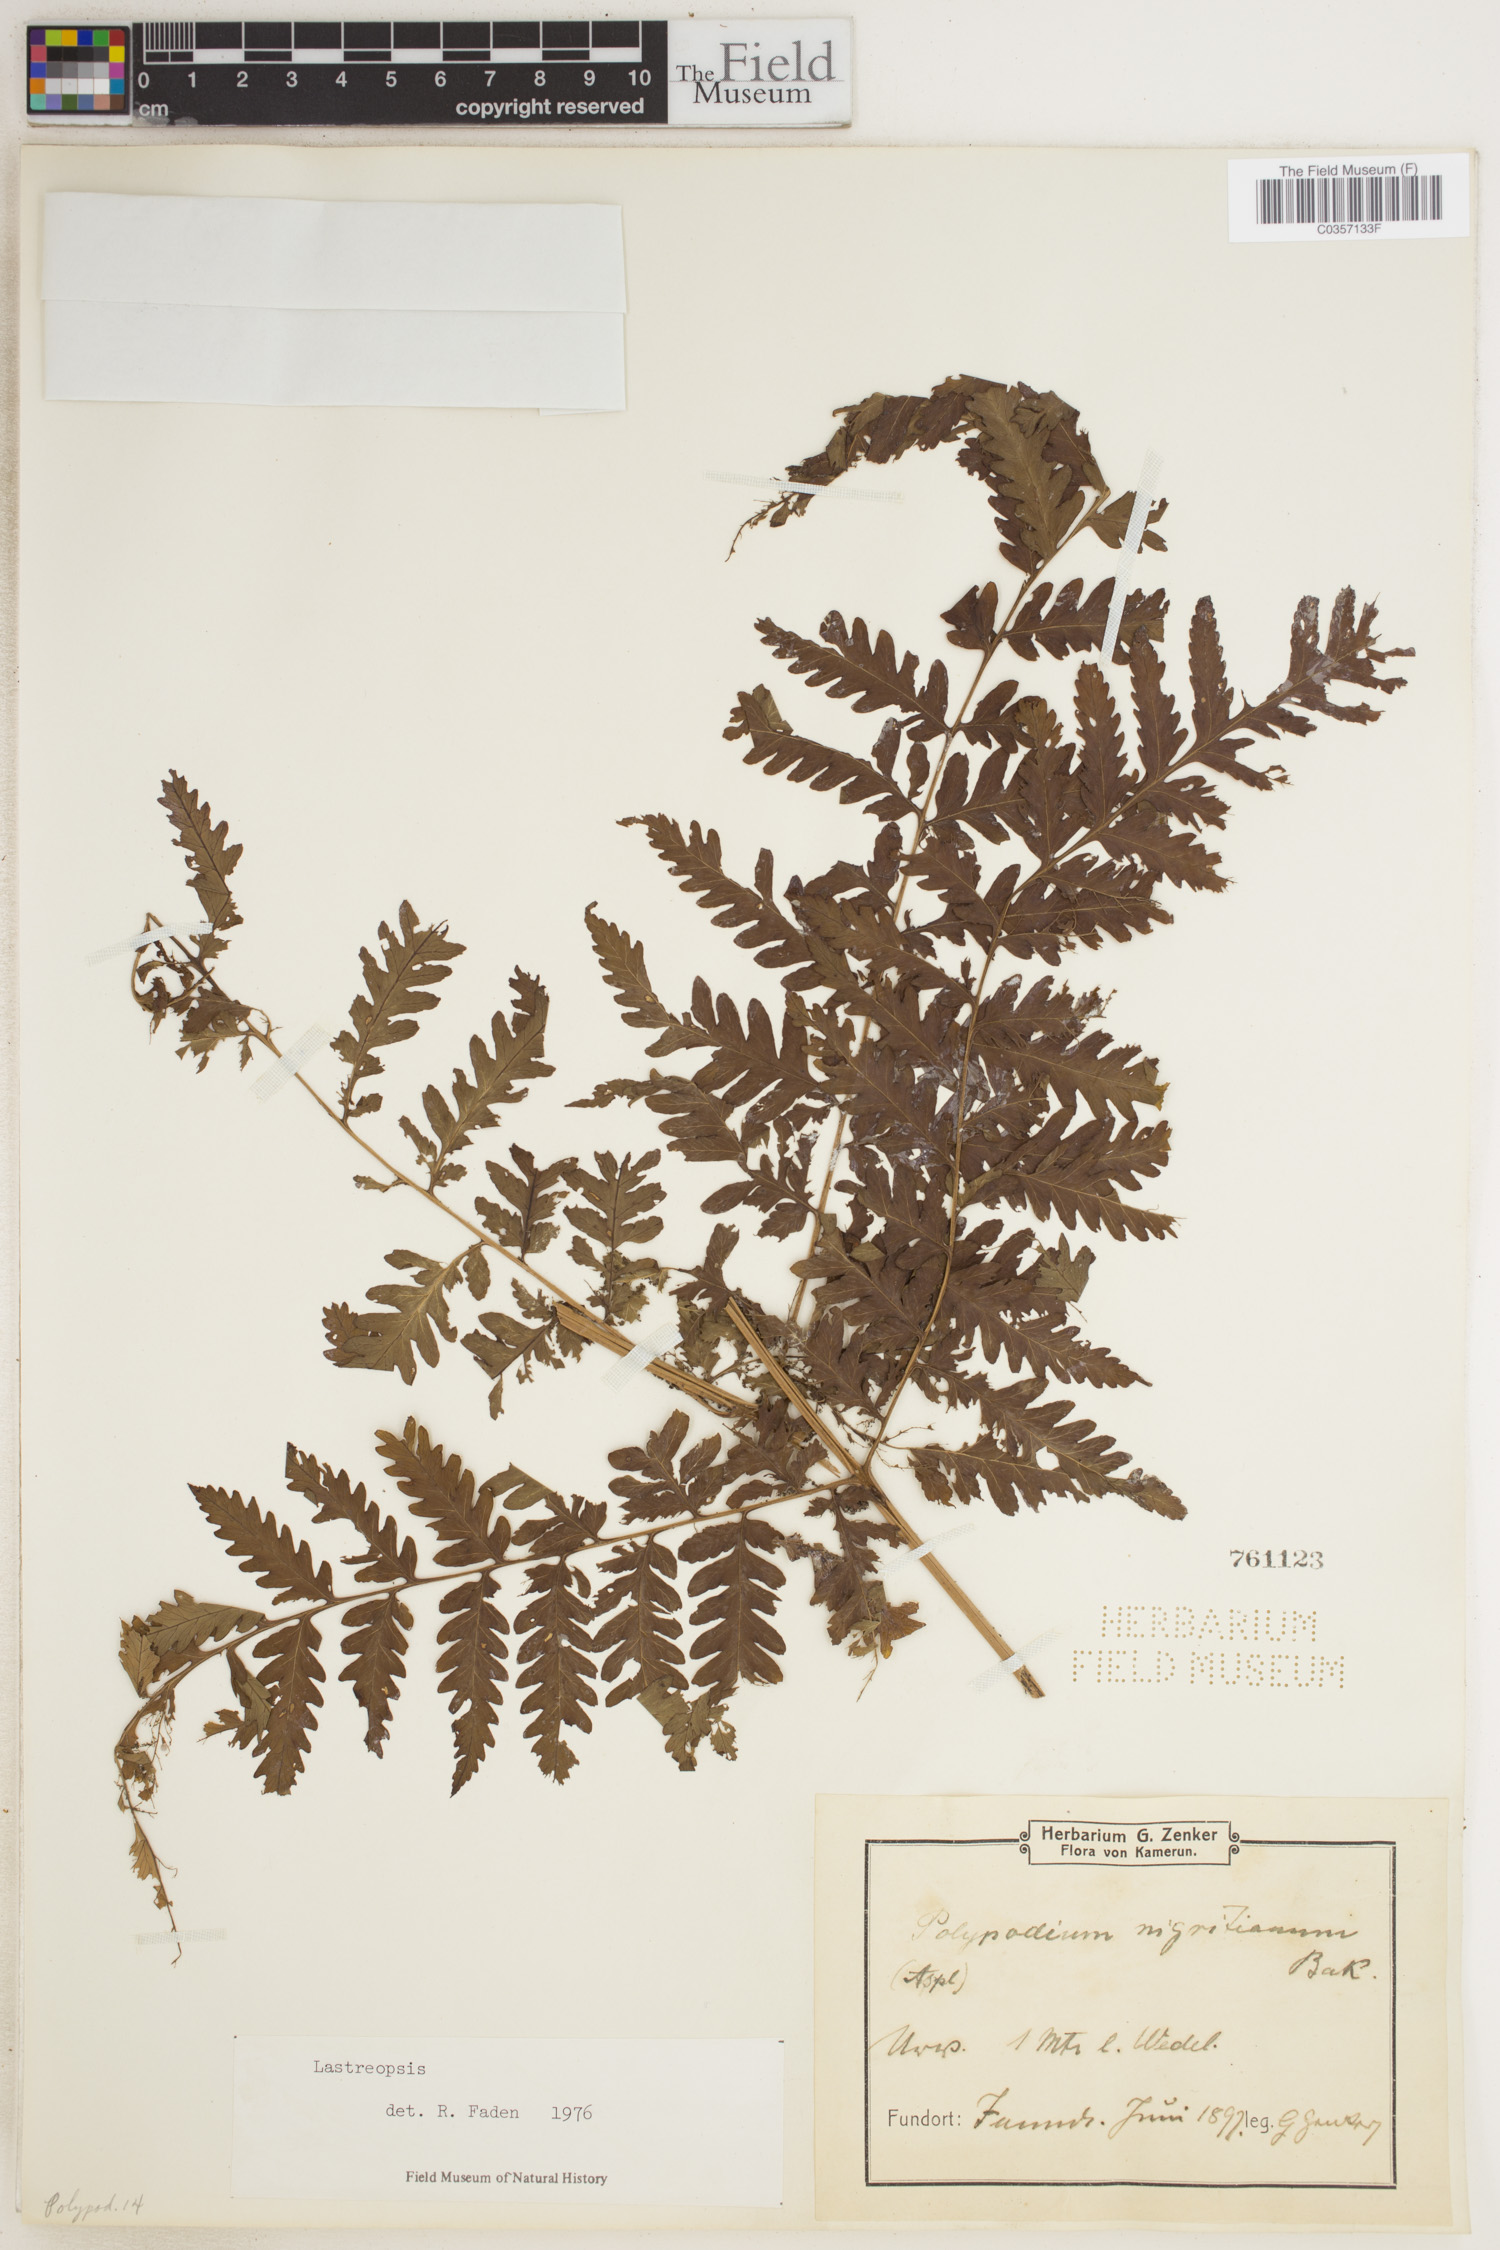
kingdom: Plantae
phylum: Tracheophyta
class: Polypodiopsida
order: Polypodiales
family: Dryopteridaceae
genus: Lastreopsis
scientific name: Lastreopsis
